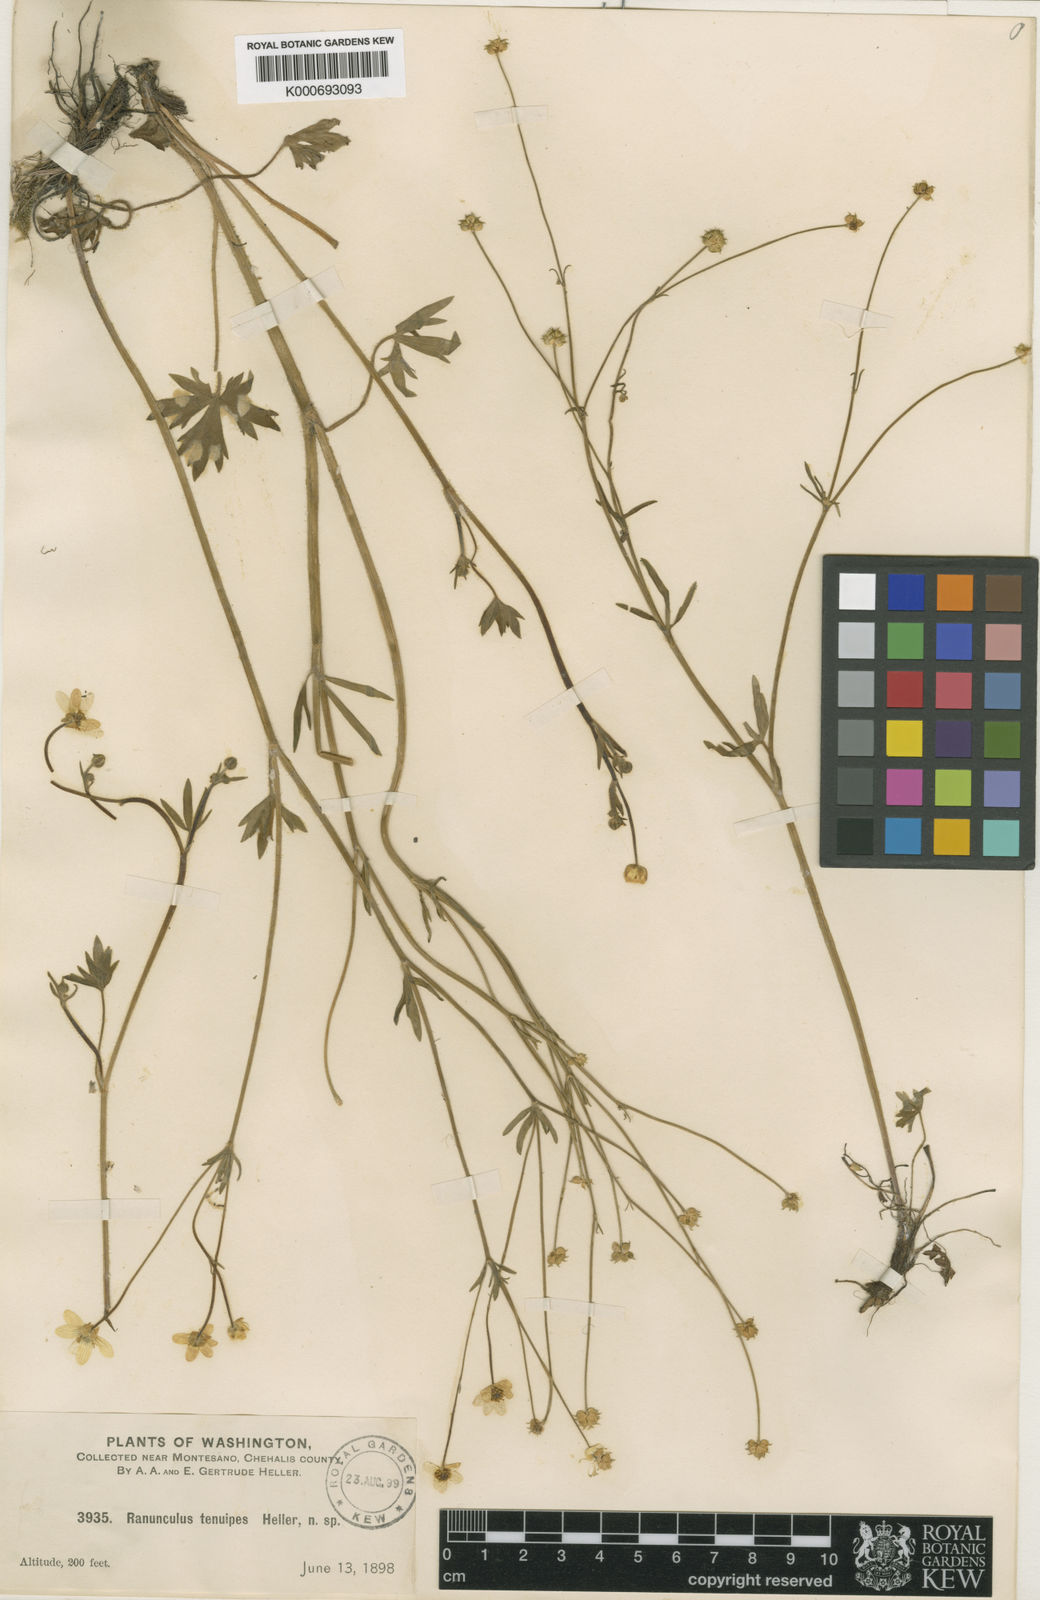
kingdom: Plantae
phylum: Tracheophyta
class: Magnoliopsida
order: Ranunculales
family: Ranunculaceae
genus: Ranunculus
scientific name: Ranunculus occidentalis
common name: Western buttercup
